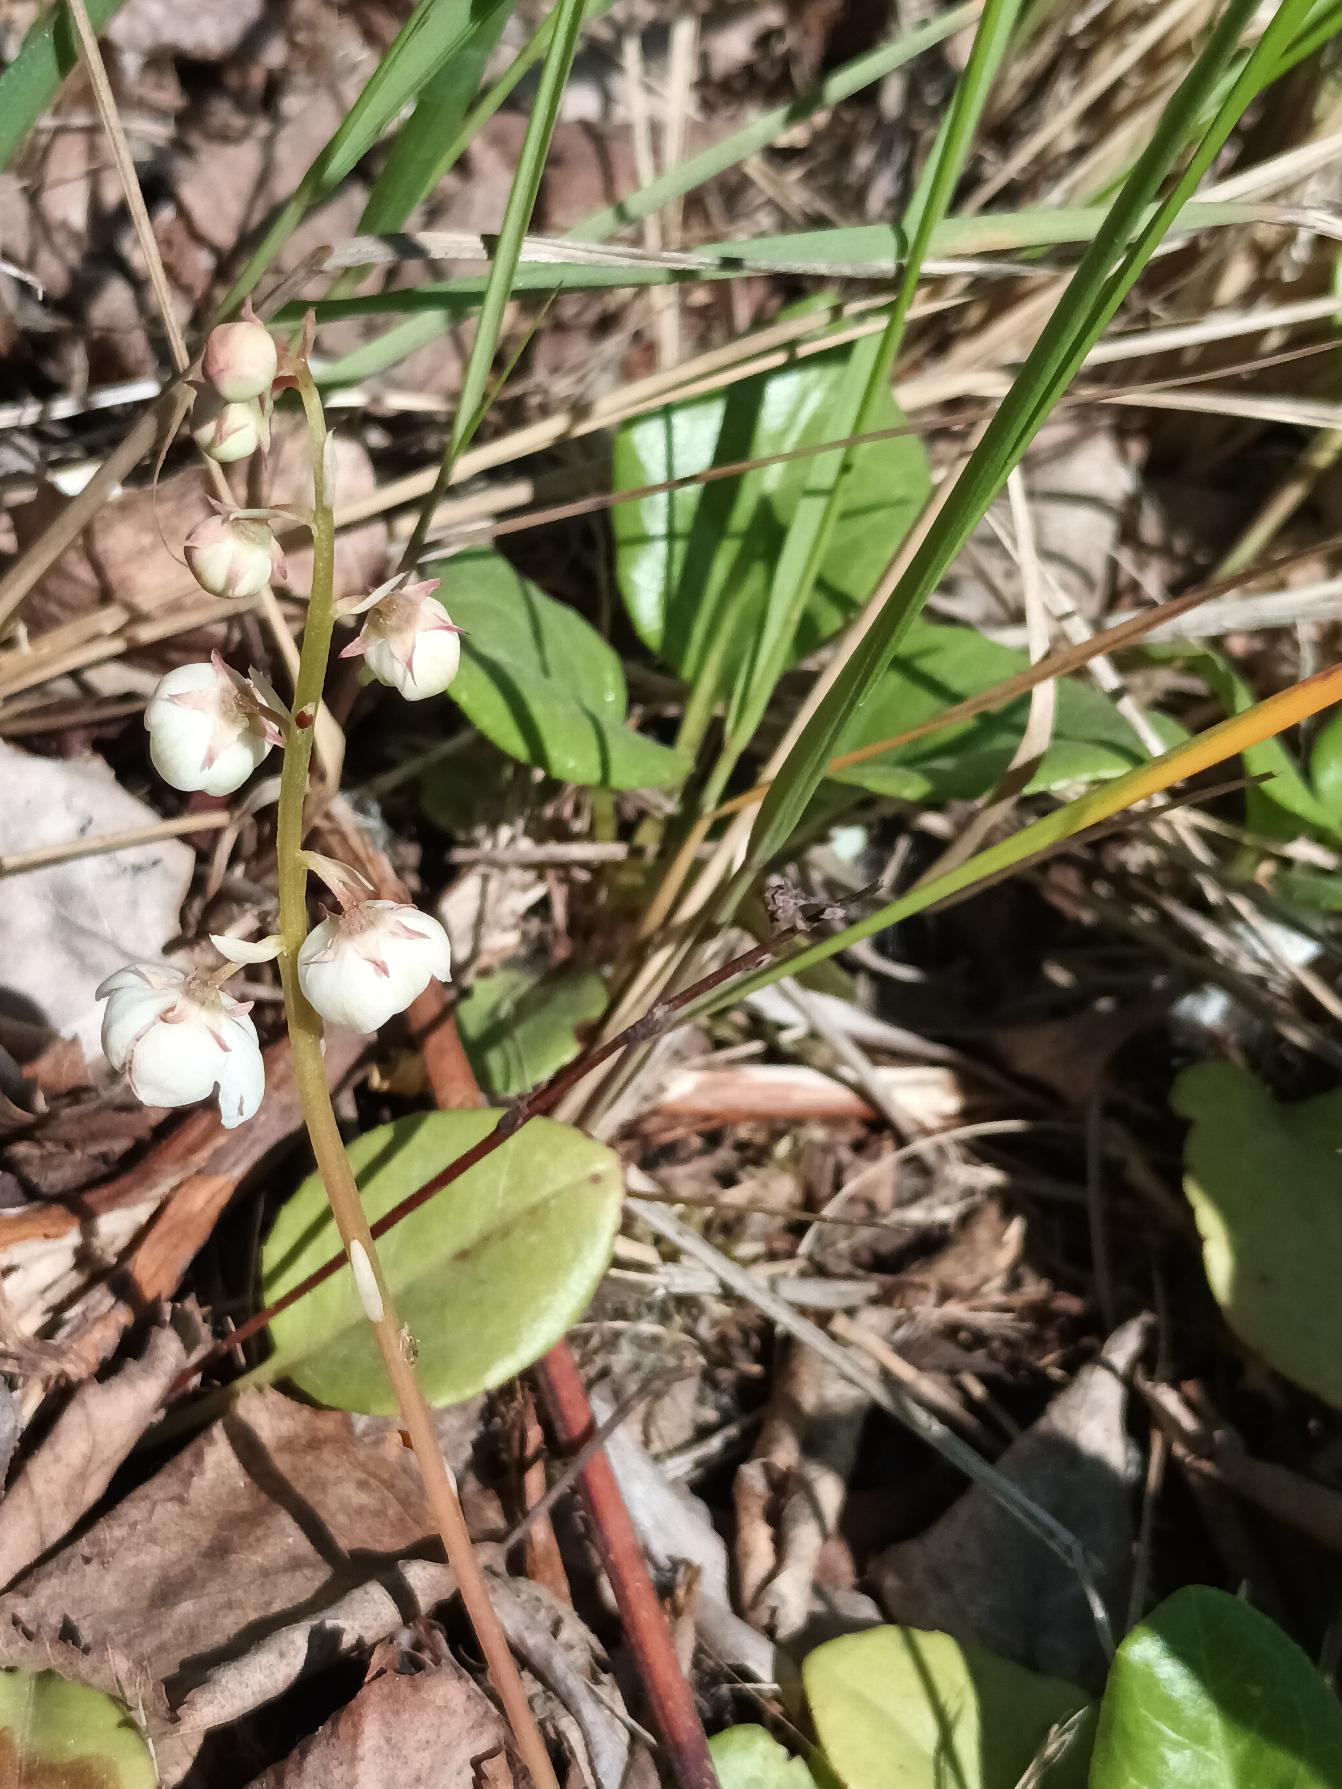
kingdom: Plantae
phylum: Tracheophyta
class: Magnoliopsida
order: Ericales
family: Ericaceae
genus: Pyrola
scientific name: Pyrola rotundifolia
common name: Mose-vintergrøn
